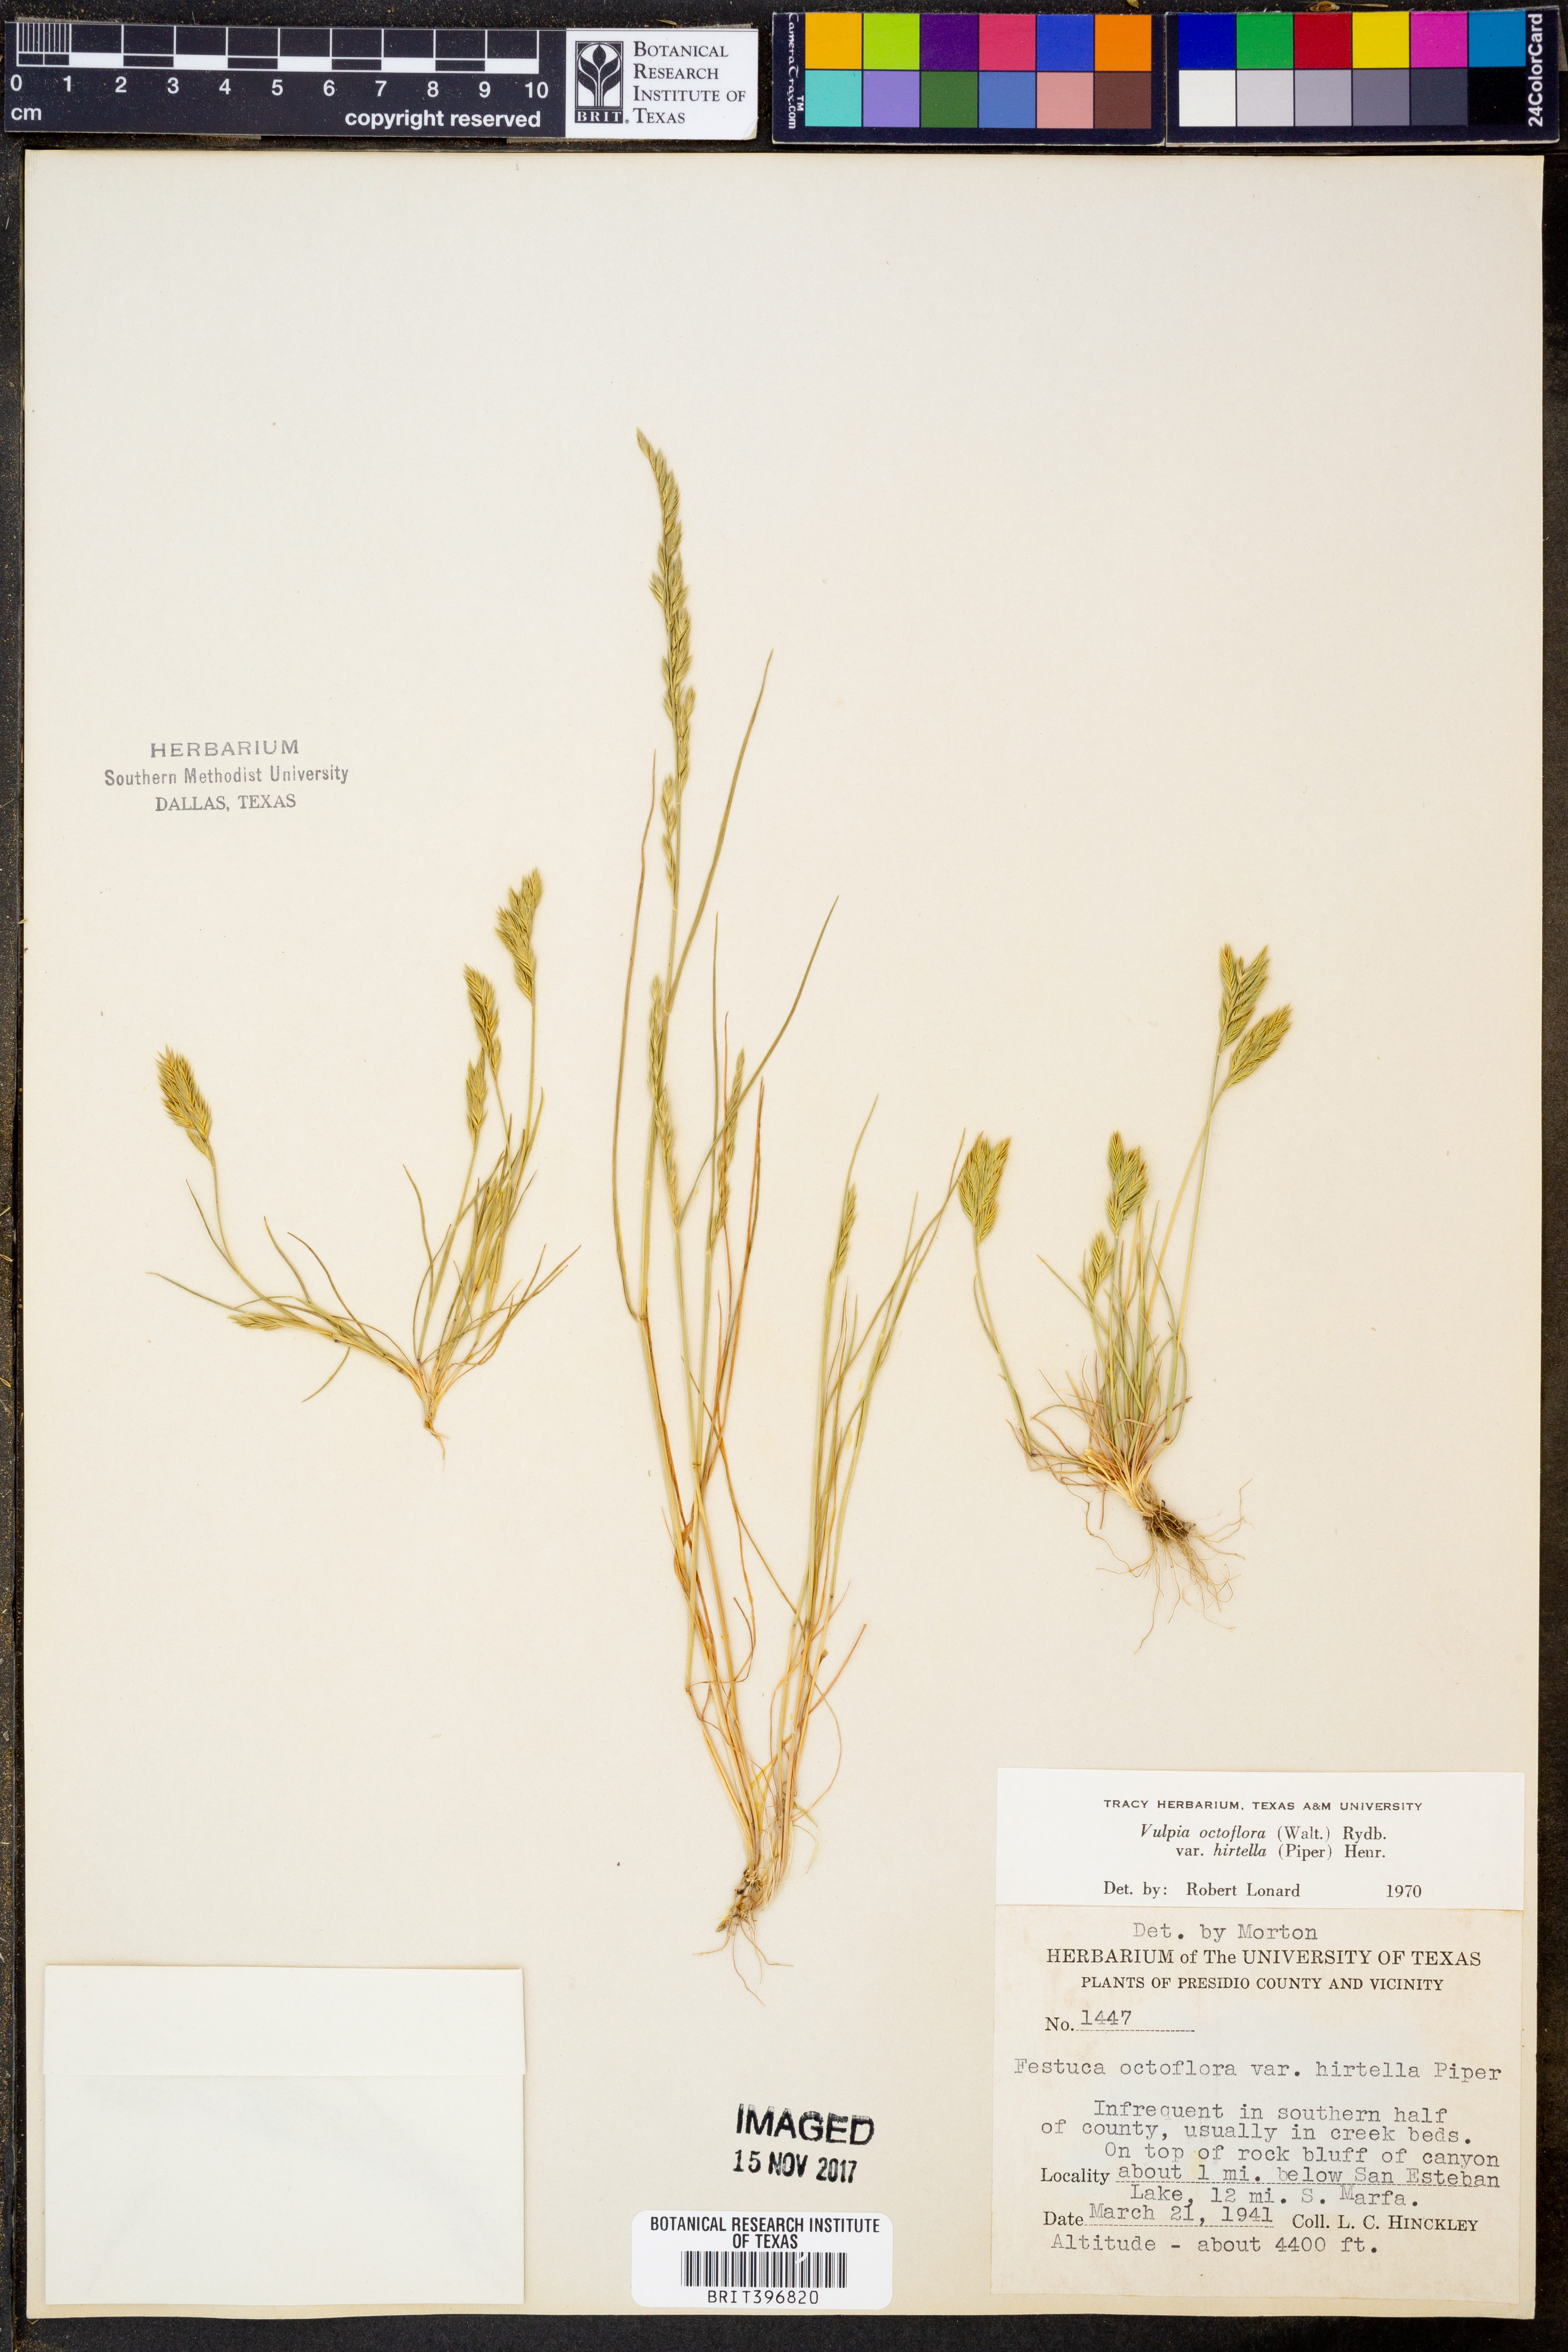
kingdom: Plantae
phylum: Tracheophyta
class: Liliopsida
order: Poales
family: Poaceae
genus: Festuca
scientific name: Festuca octoflora
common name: Sixweeks grass
